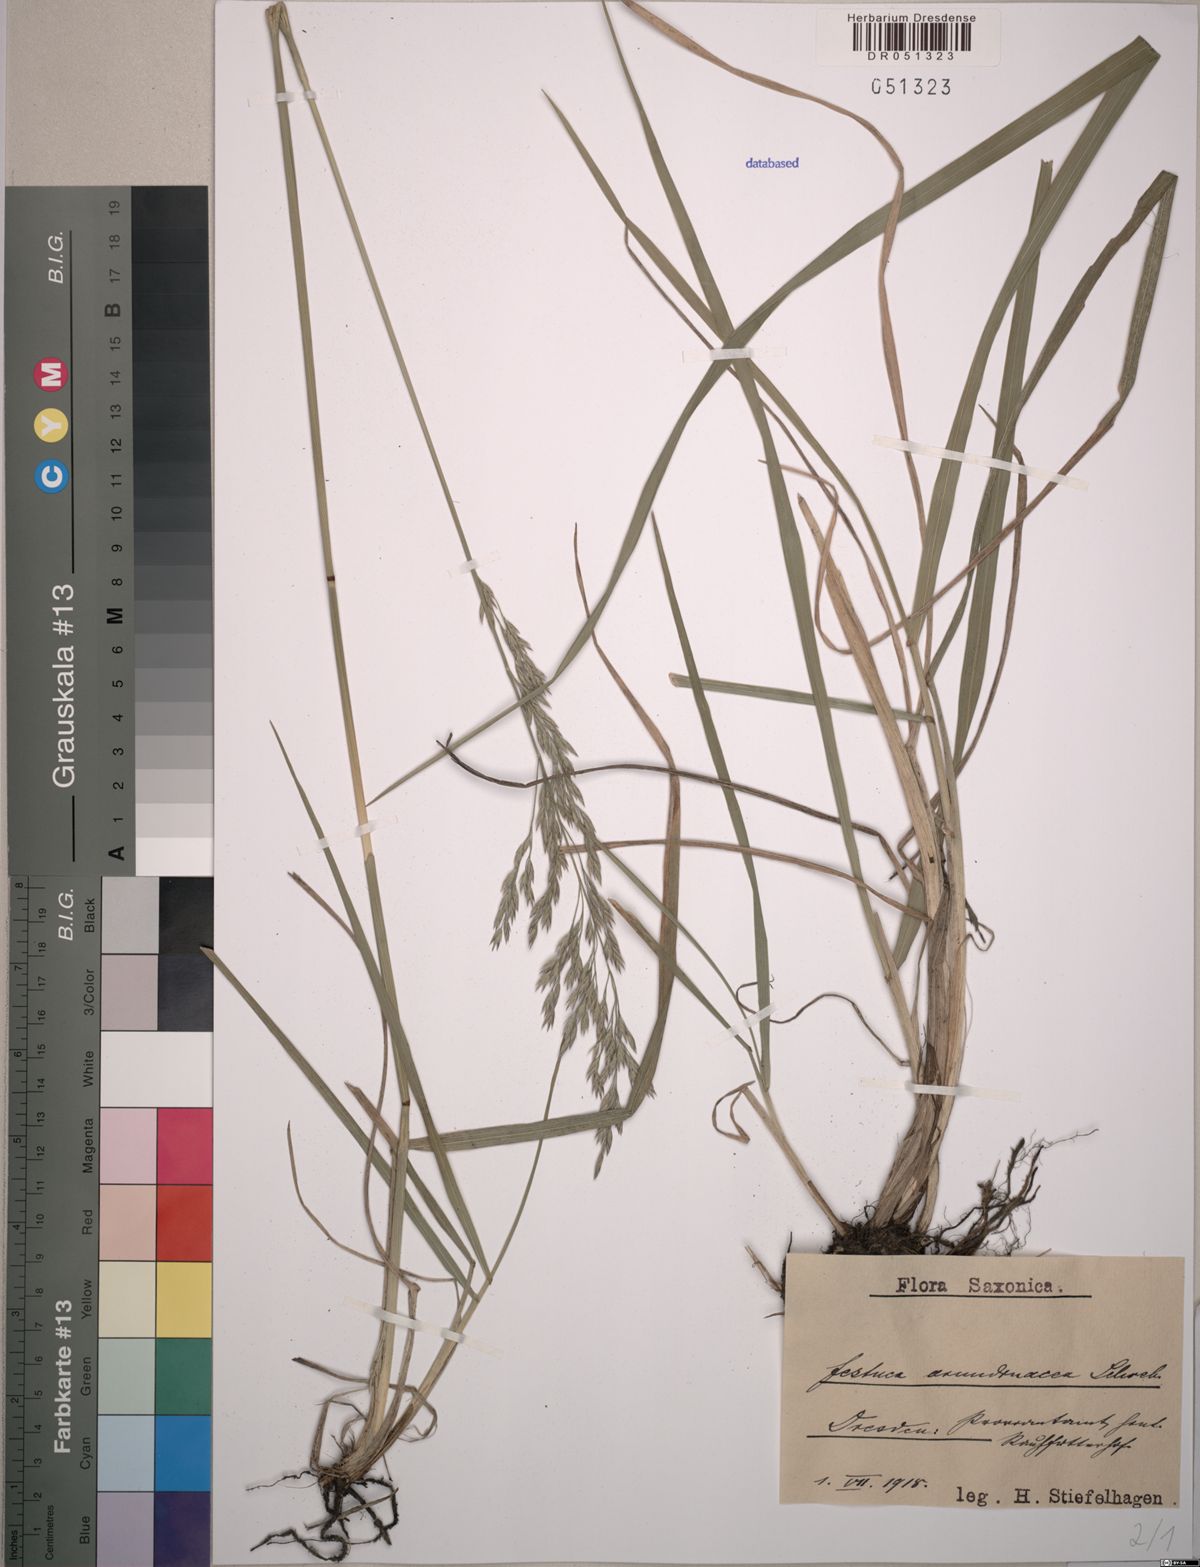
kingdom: Plantae
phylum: Tracheophyta
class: Liliopsida
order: Poales
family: Poaceae
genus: Lolium
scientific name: Lolium arundinaceum
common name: Reed fescue
